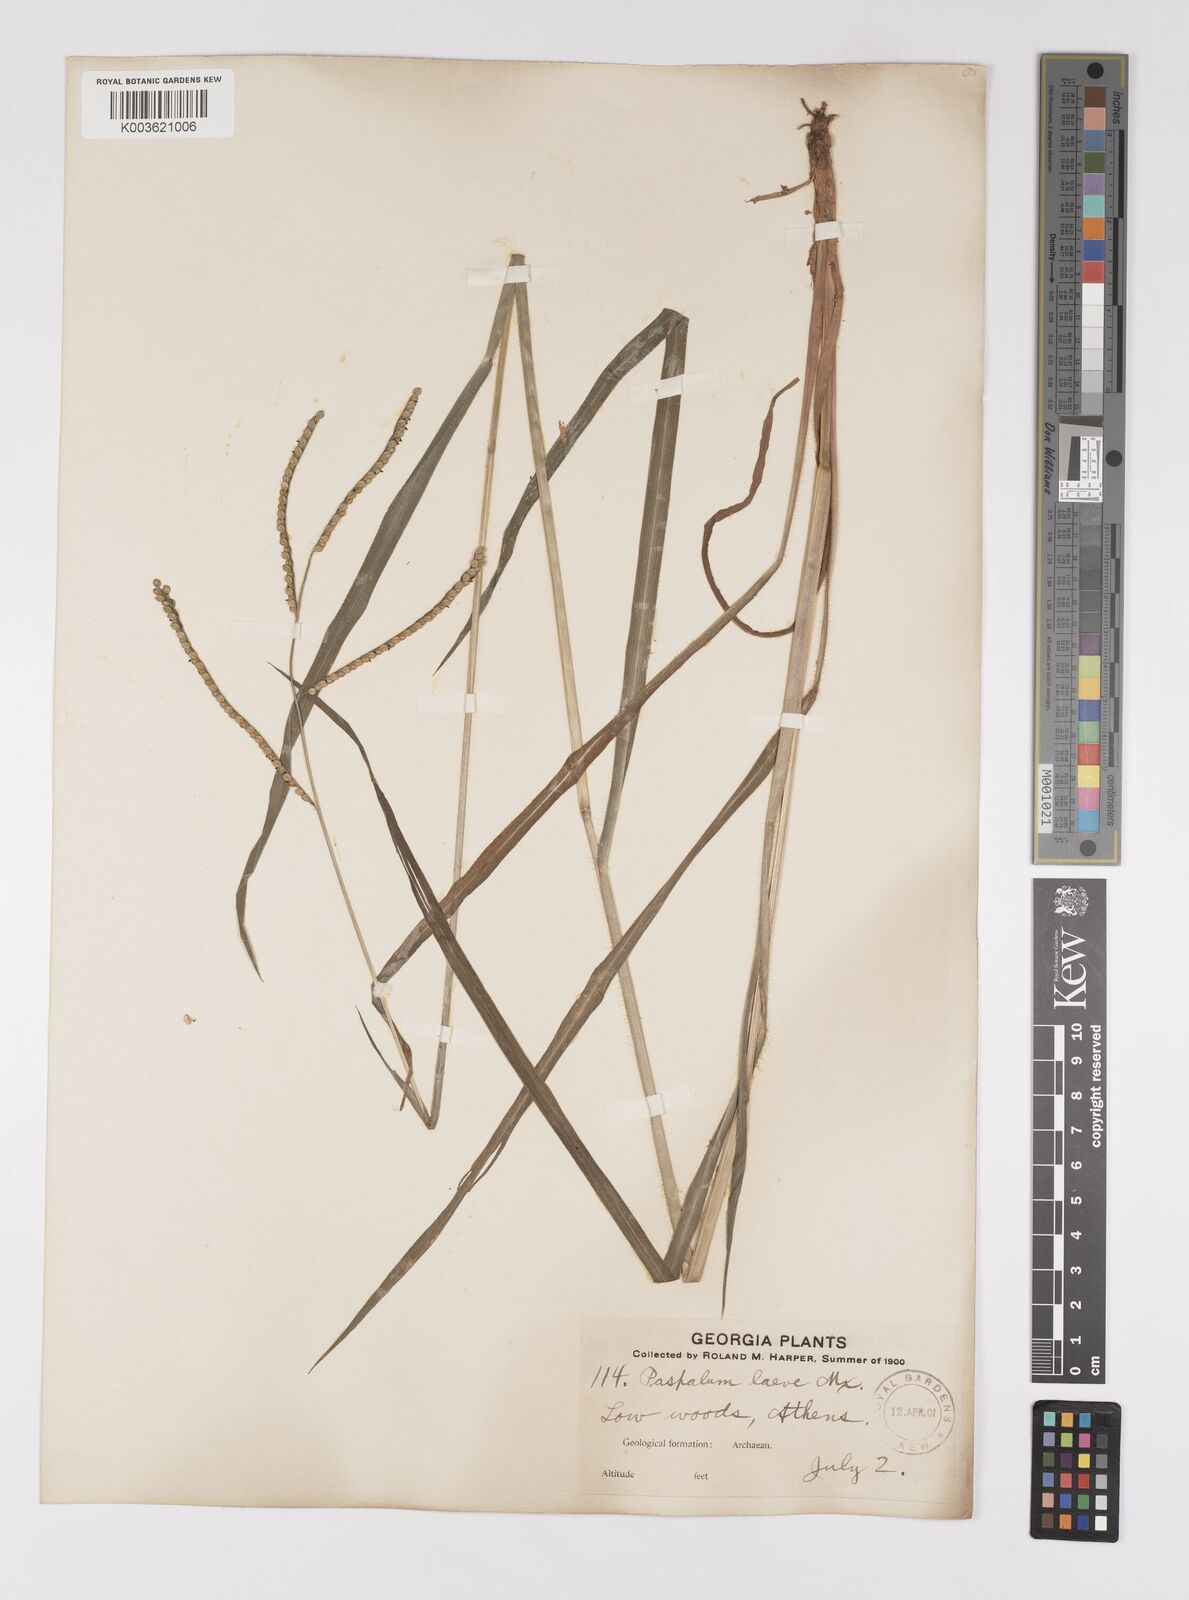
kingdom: Plantae
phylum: Tracheophyta
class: Liliopsida
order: Poales
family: Poaceae
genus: Paspalum
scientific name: Paspalum laeve
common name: Field paspalum
